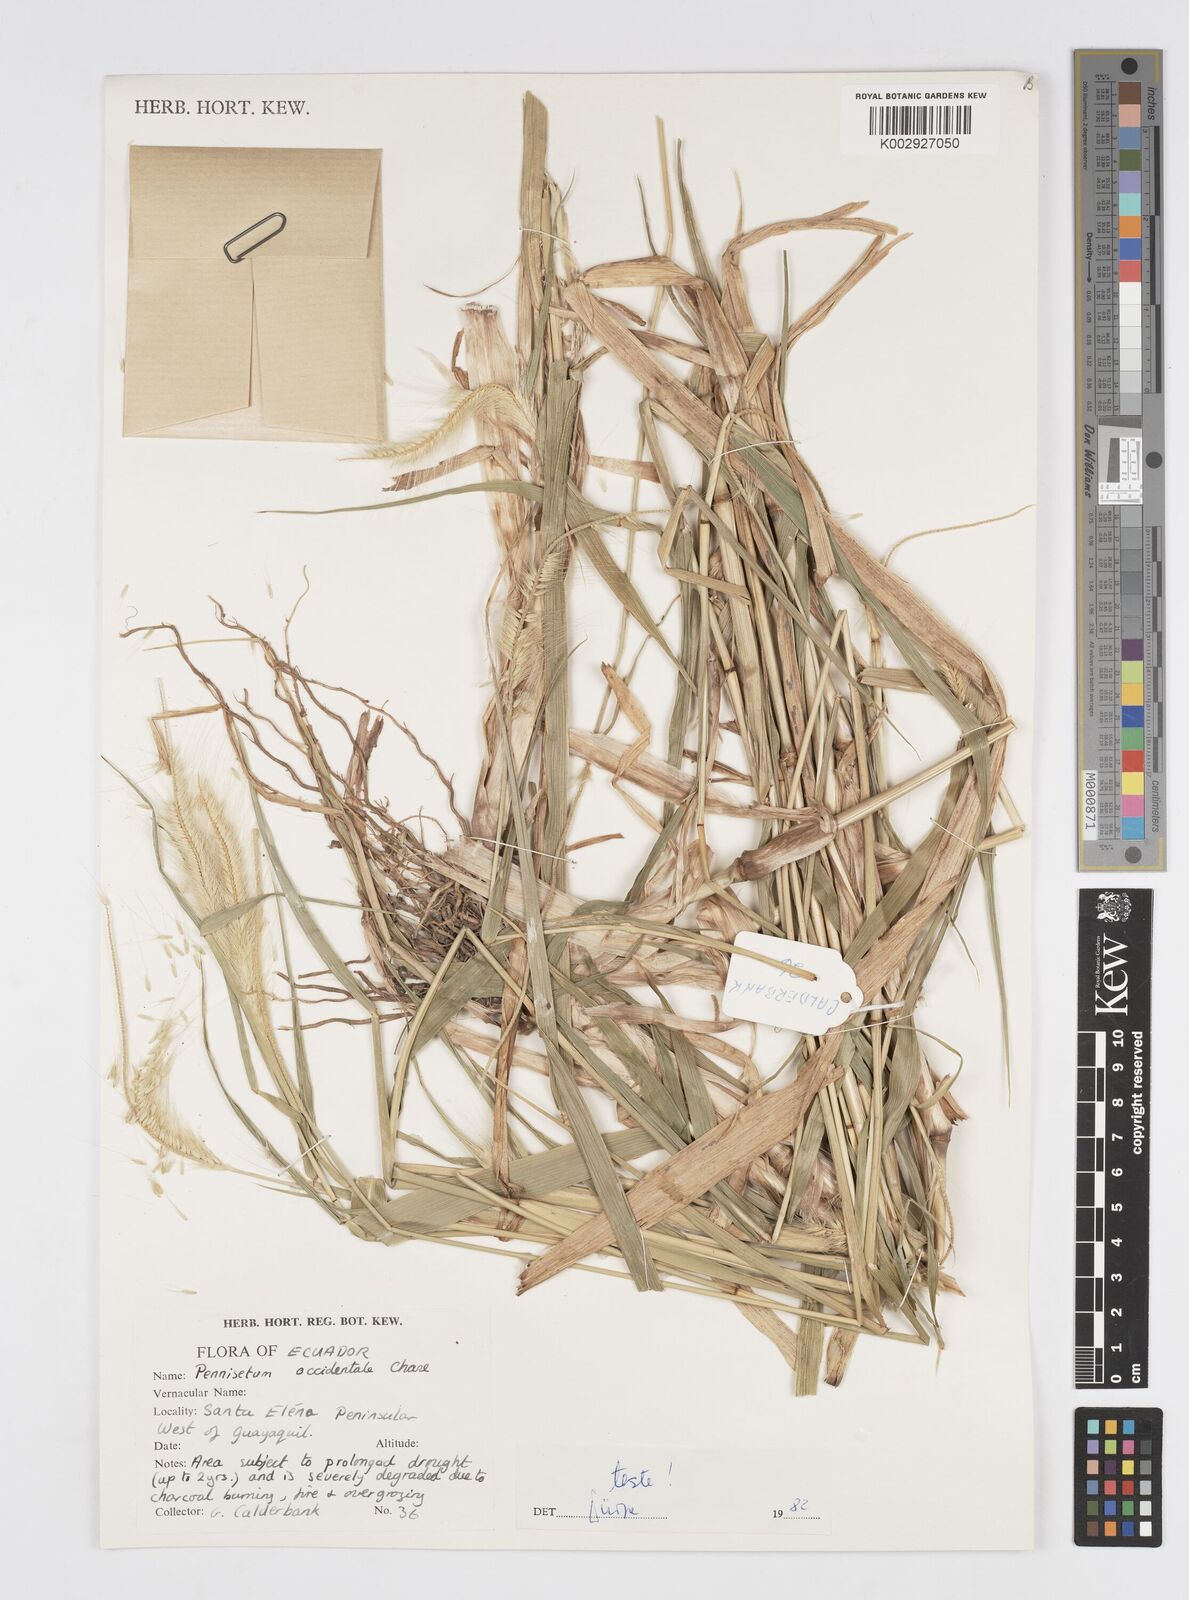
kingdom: Plantae
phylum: Tracheophyta
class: Liliopsida
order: Poales
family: Poaceae
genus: Cenchrus
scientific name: Cenchrus occidentalis
